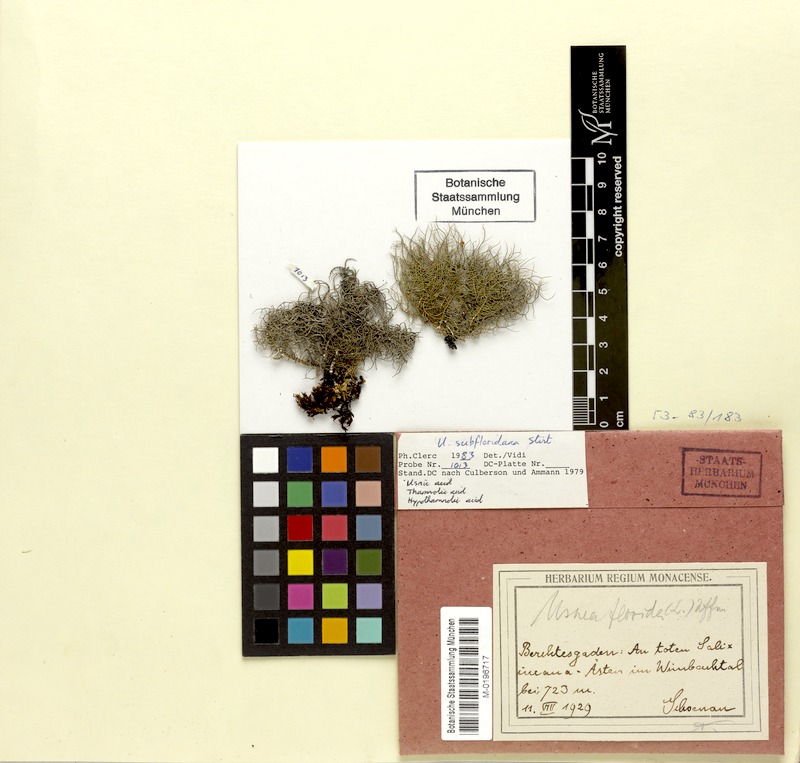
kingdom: Fungi
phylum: Ascomycota
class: Lecanoromycetes
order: Lecanorales
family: Parmeliaceae
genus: Usnea
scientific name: Usnea subfloridana
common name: Boreal beard lichen
